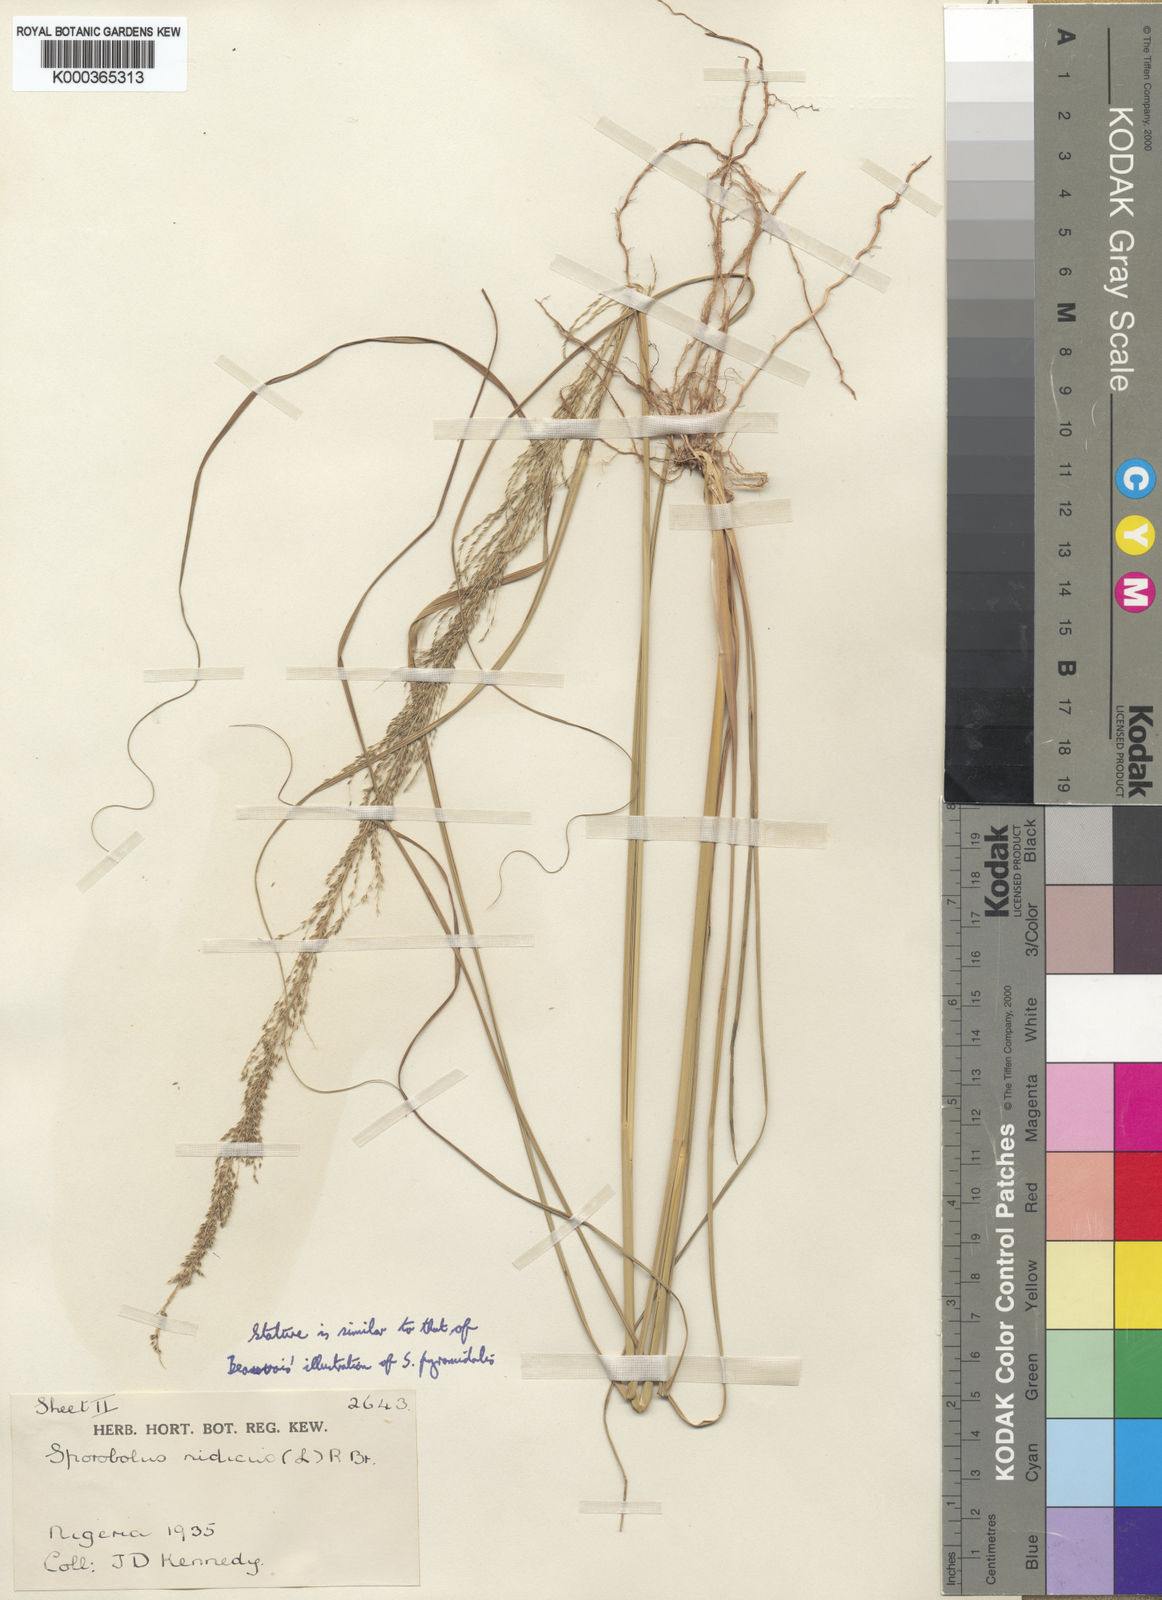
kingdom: Plantae
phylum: Tracheophyta
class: Liliopsida
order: Poales
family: Poaceae
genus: Sporobolus
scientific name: Sporobolus pyramidalis
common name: West indian dropseed
